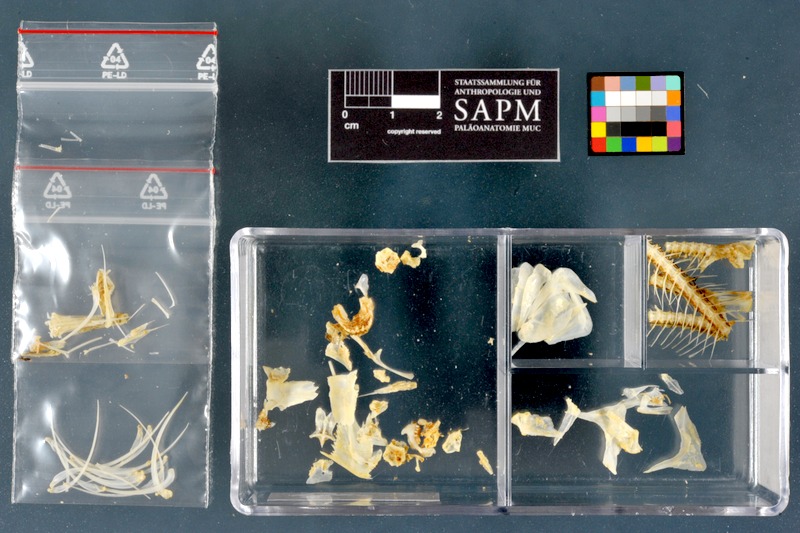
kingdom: Animalia
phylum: Chordata
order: Characiformes
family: Alestidae
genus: Brycinus
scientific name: Brycinus nurse
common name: Nurse tetra
